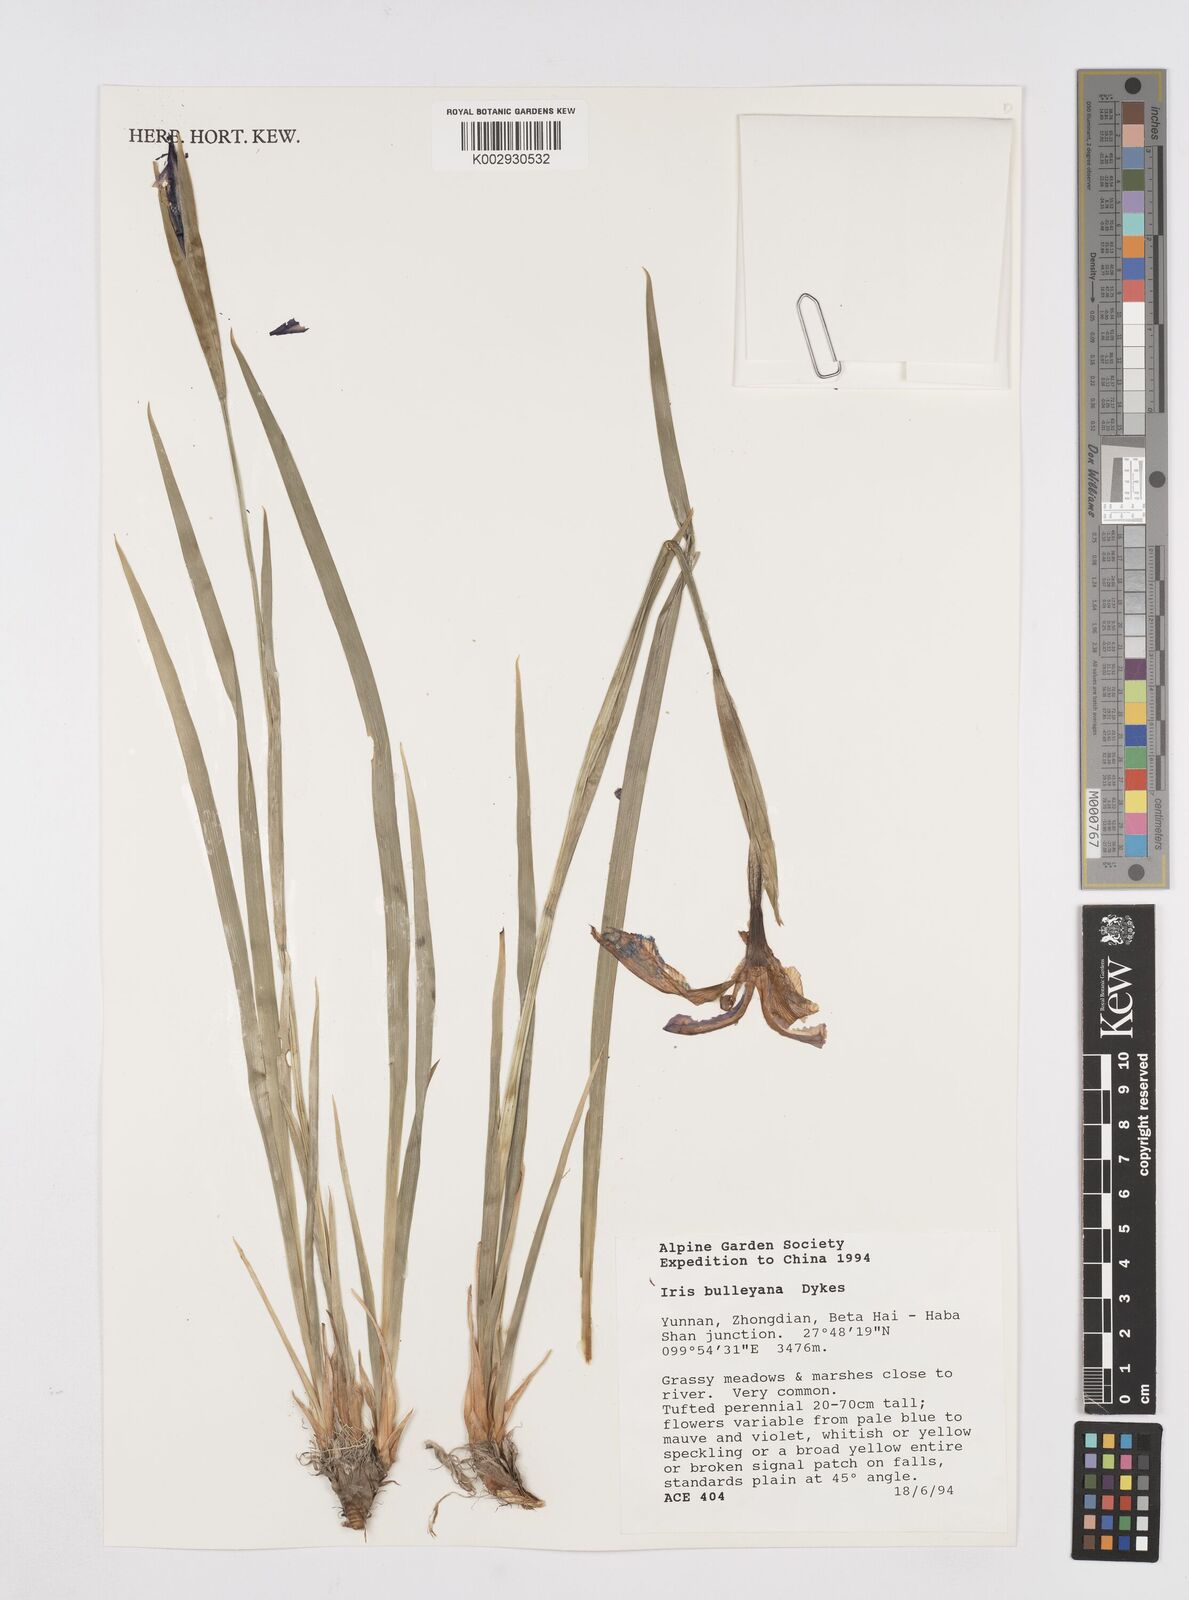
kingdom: Plantae
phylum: Tracheophyta
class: Liliopsida
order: Asparagales
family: Iridaceae
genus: Iris
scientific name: Iris bulleyana
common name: Southwest iris
